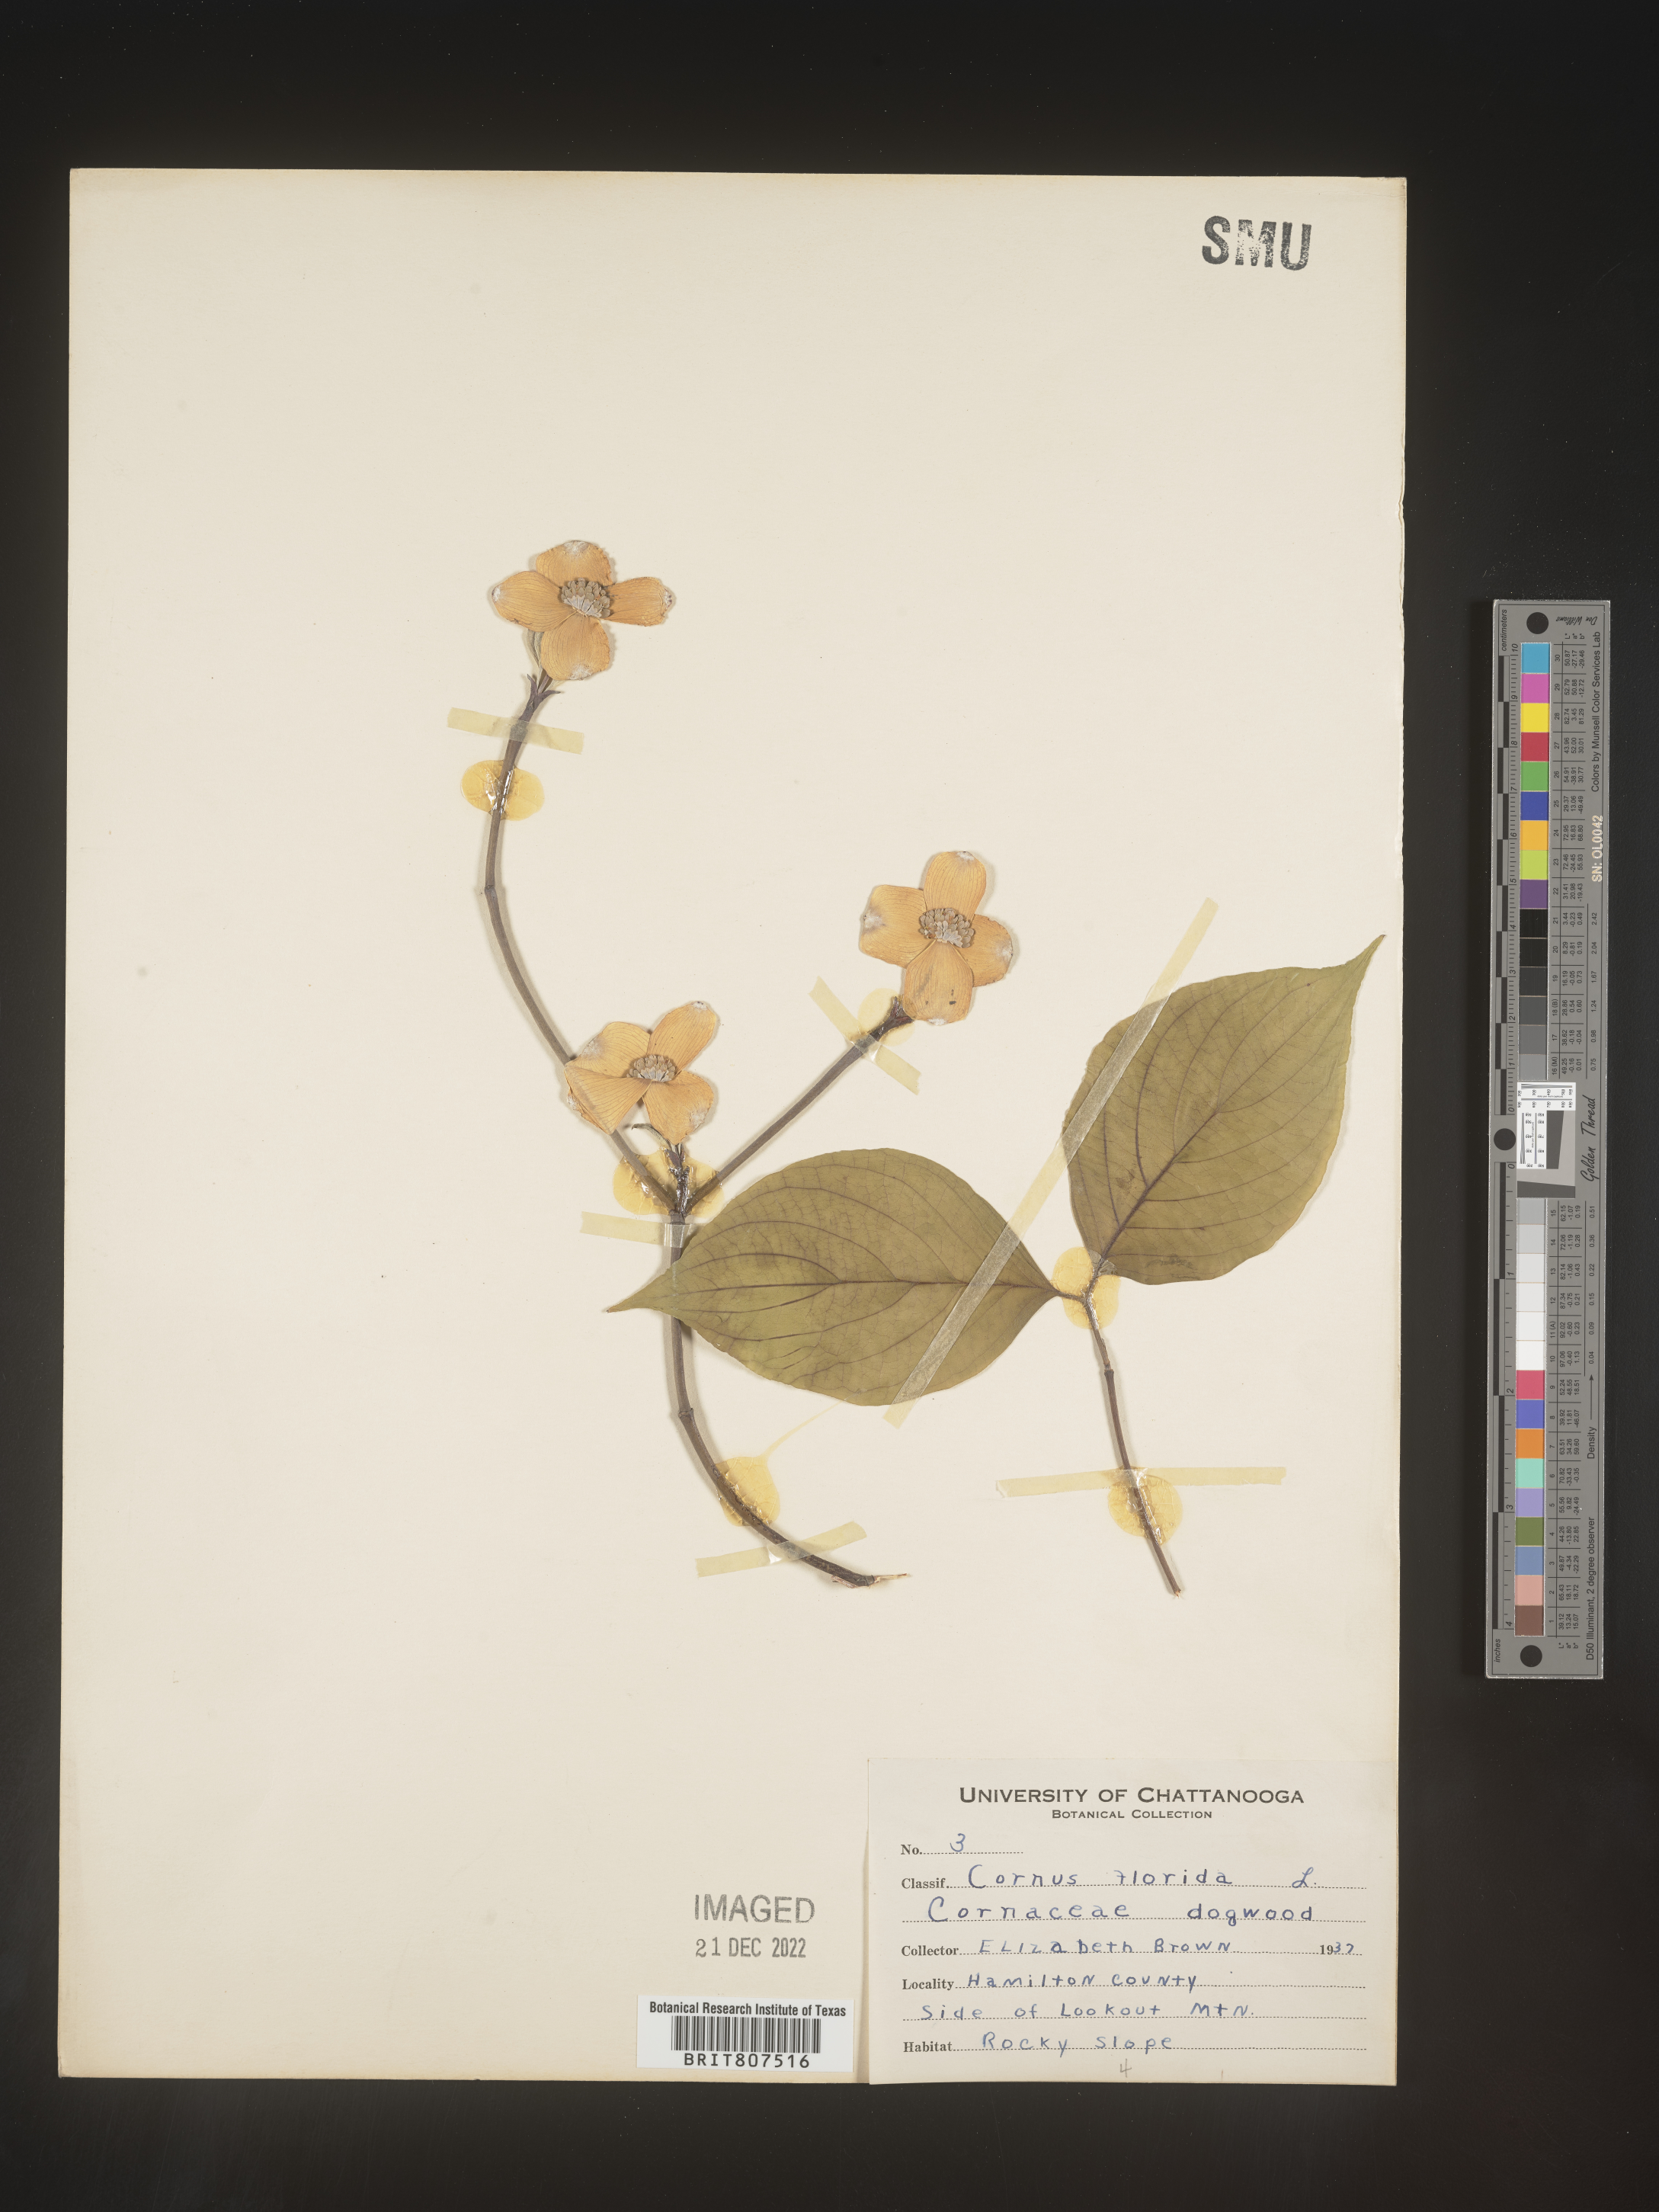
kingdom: Plantae
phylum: Tracheophyta
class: Magnoliopsida
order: Cornales
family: Cornaceae
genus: Cornus
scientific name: Cornus florida
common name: Flowering dogwood
